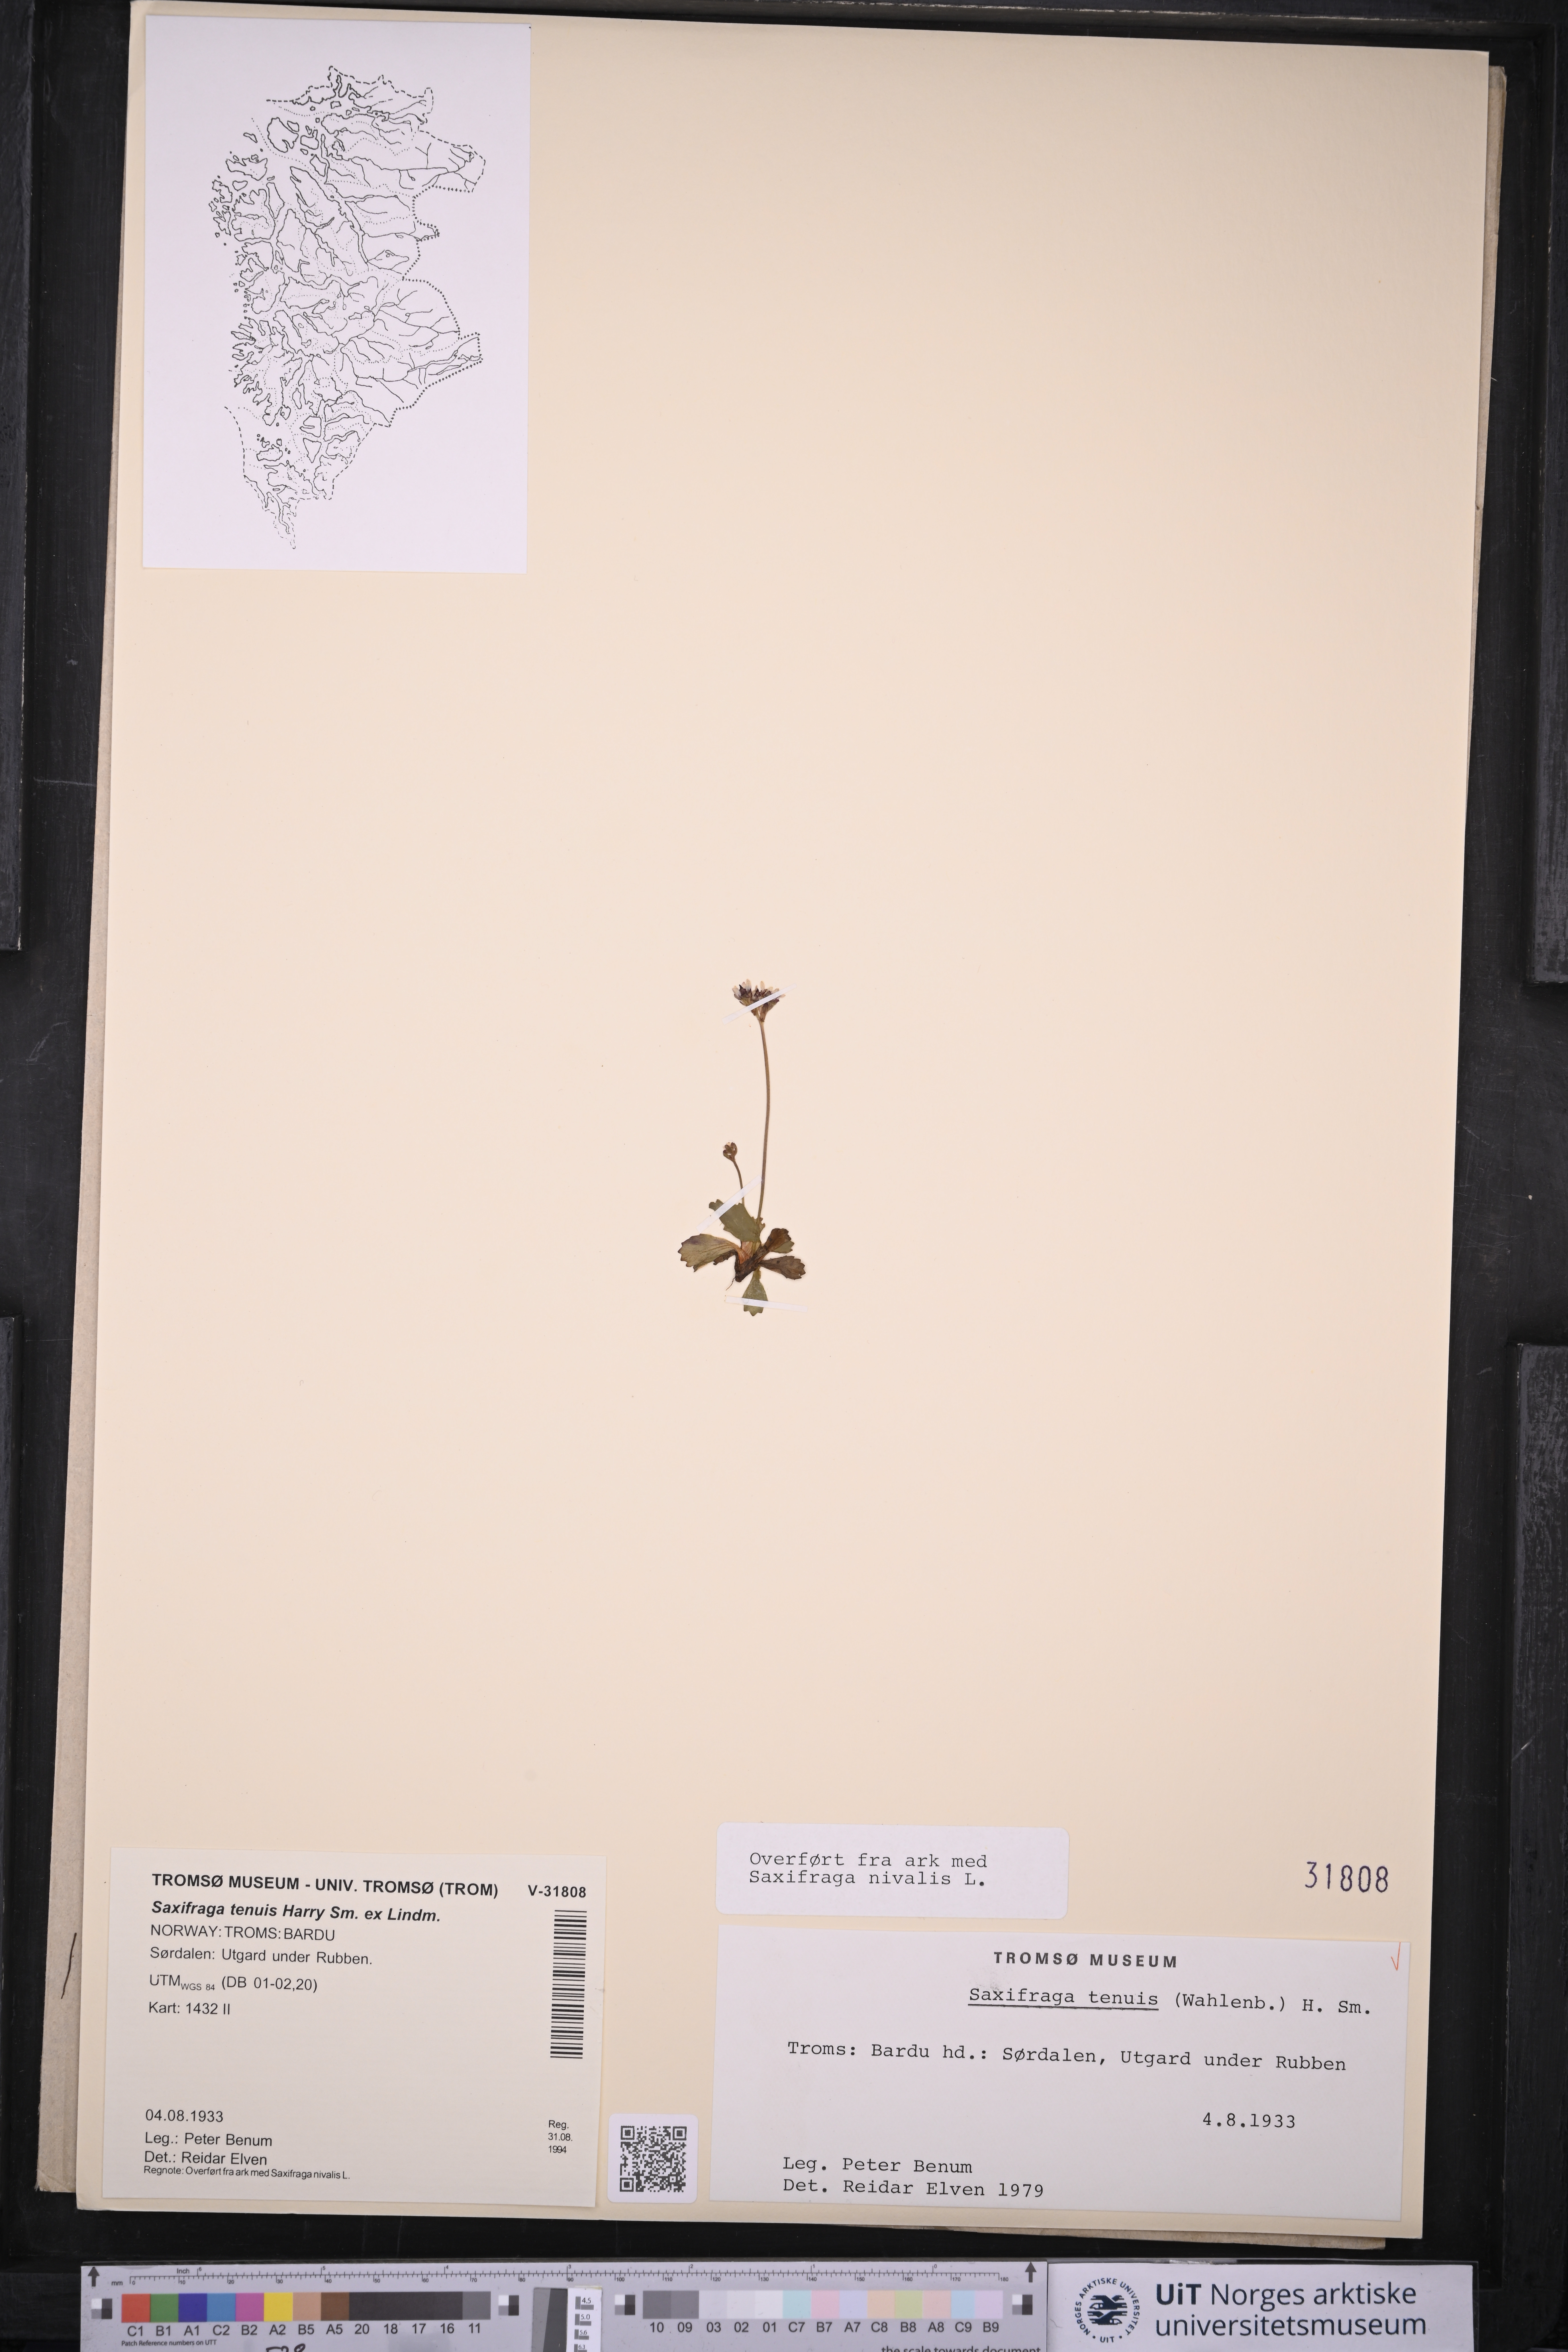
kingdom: Plantae
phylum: Tracheophyta
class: Magnoliopsida
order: Saxifragales
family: Saxifragaceae
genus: Micranthes
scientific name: Micranthes tenuis
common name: Ottertail pass saxifrage
